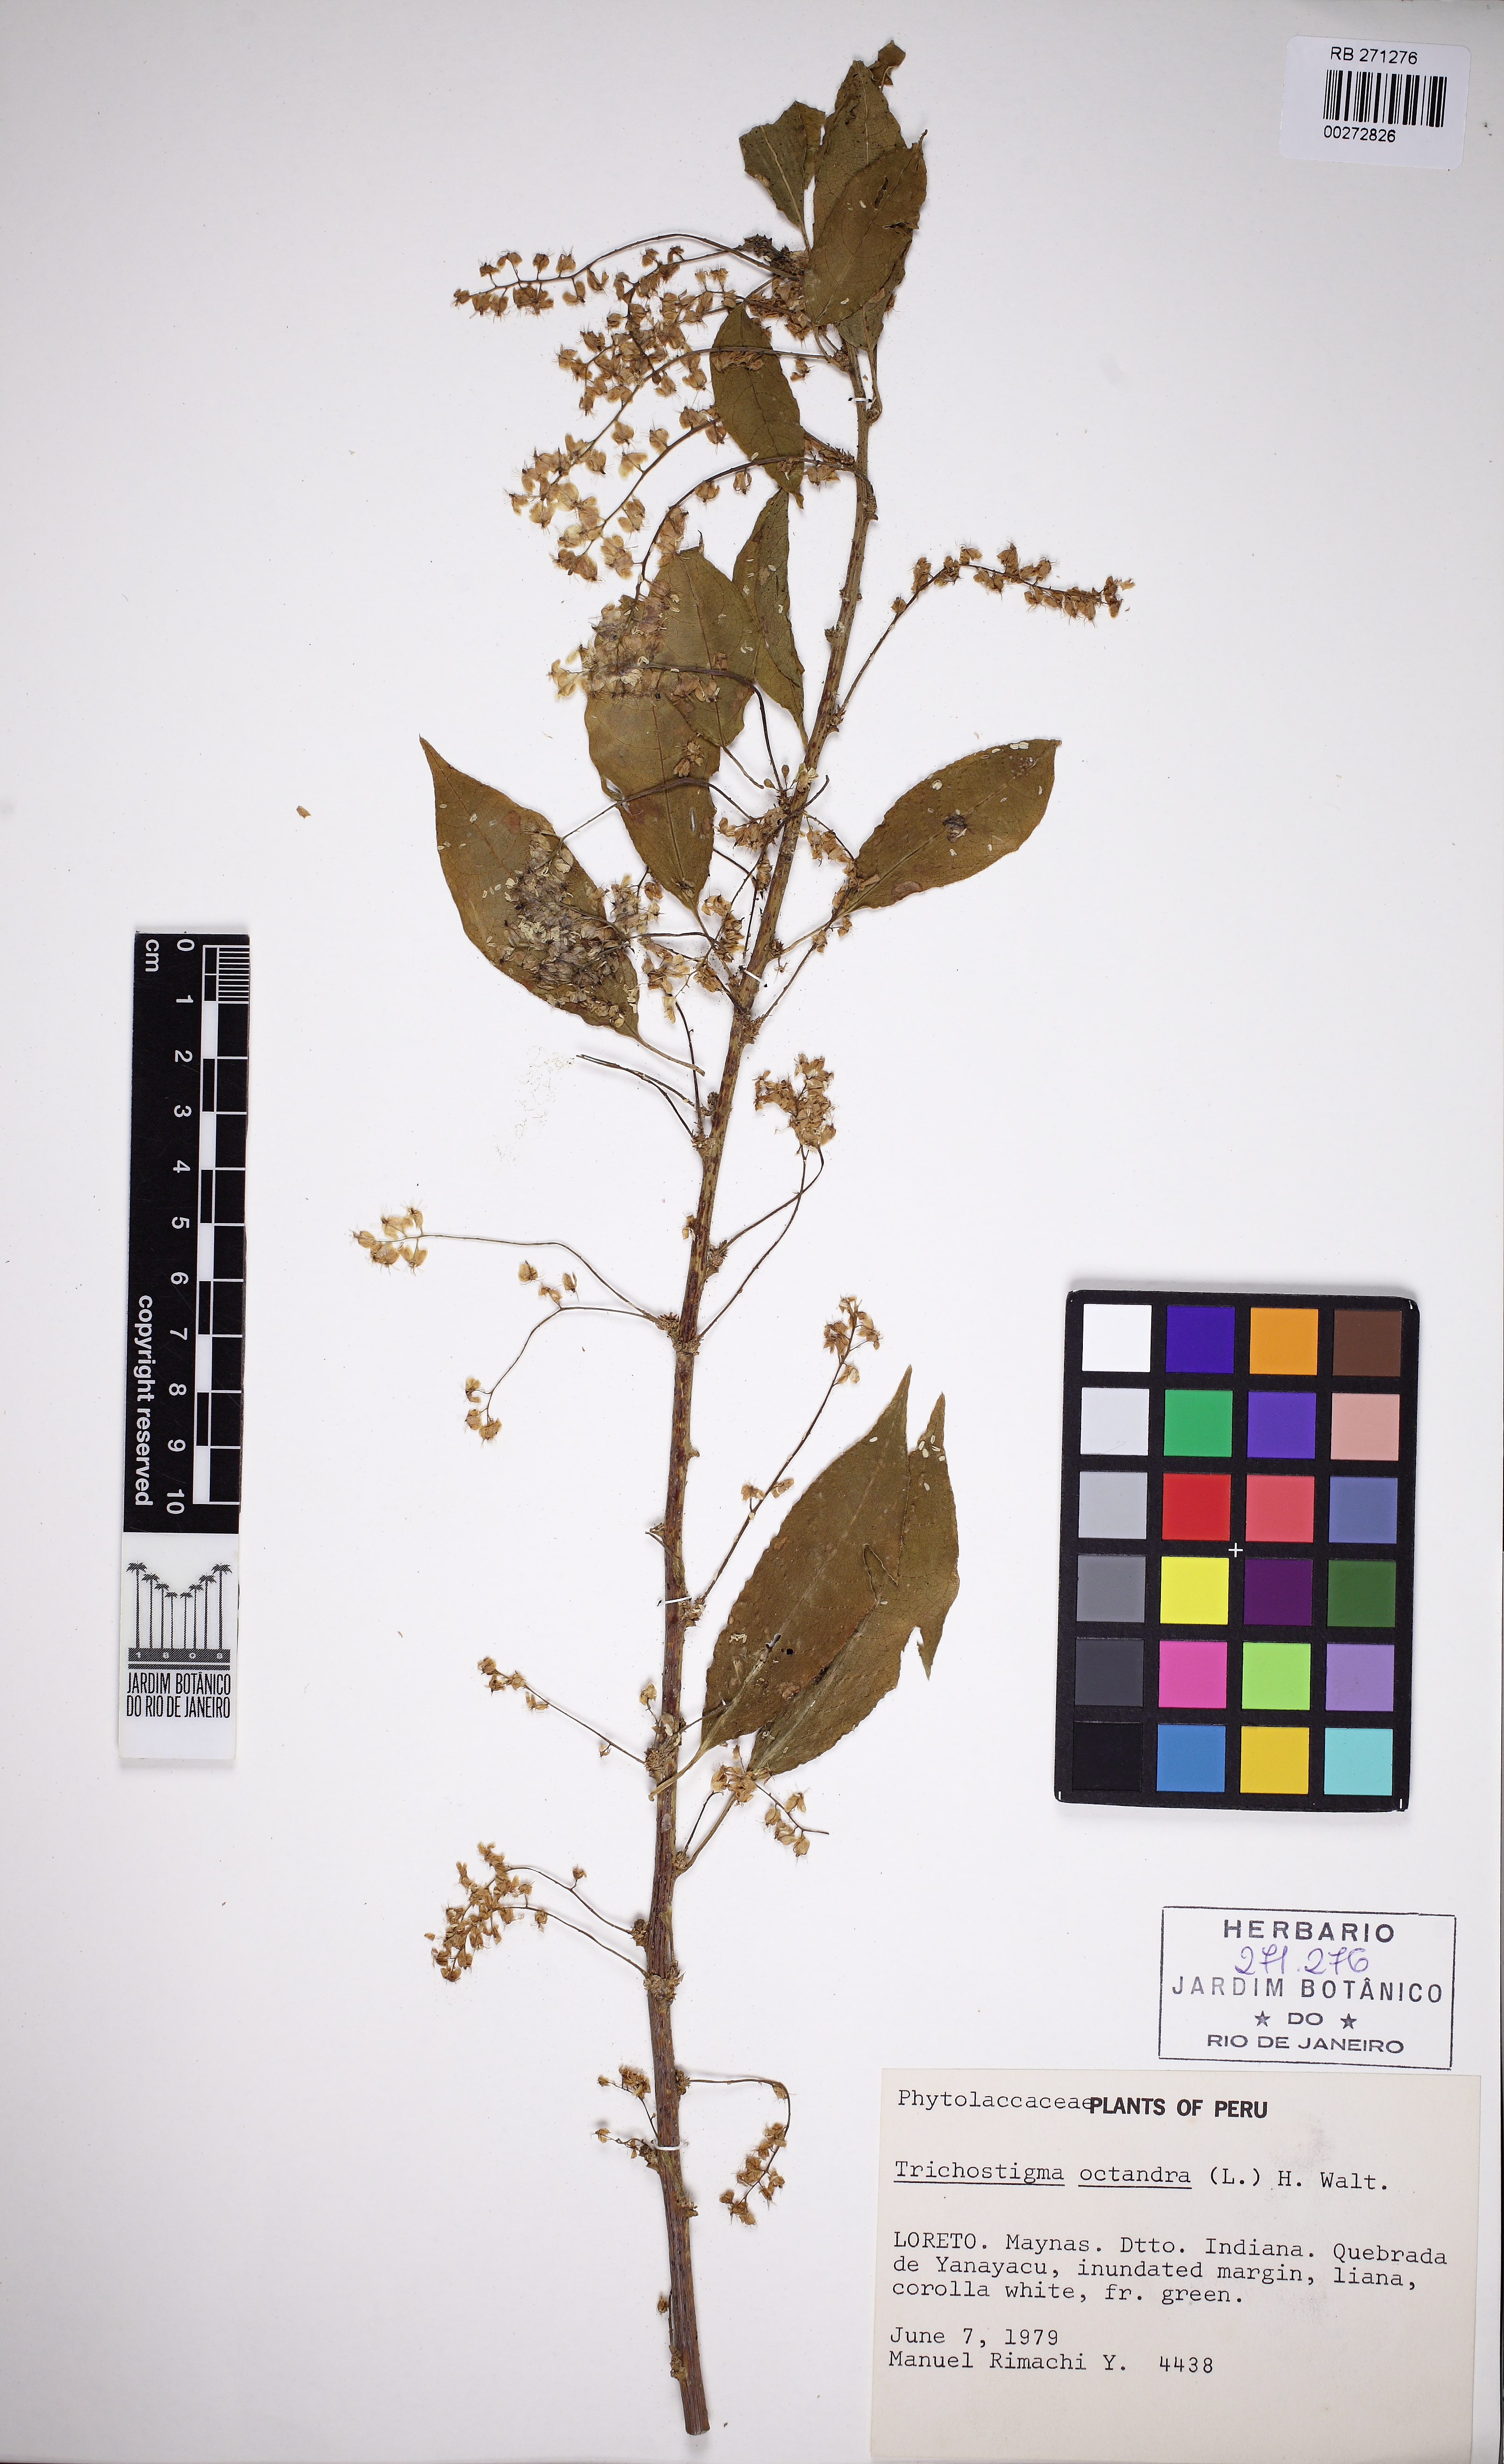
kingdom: Plantae
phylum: Tracheophyta
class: Magnoliopsida
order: Caryophyllales
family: Phytolaccaceae
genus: Trichostigma
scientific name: Trichostigma octandrum
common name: Basket wiss
